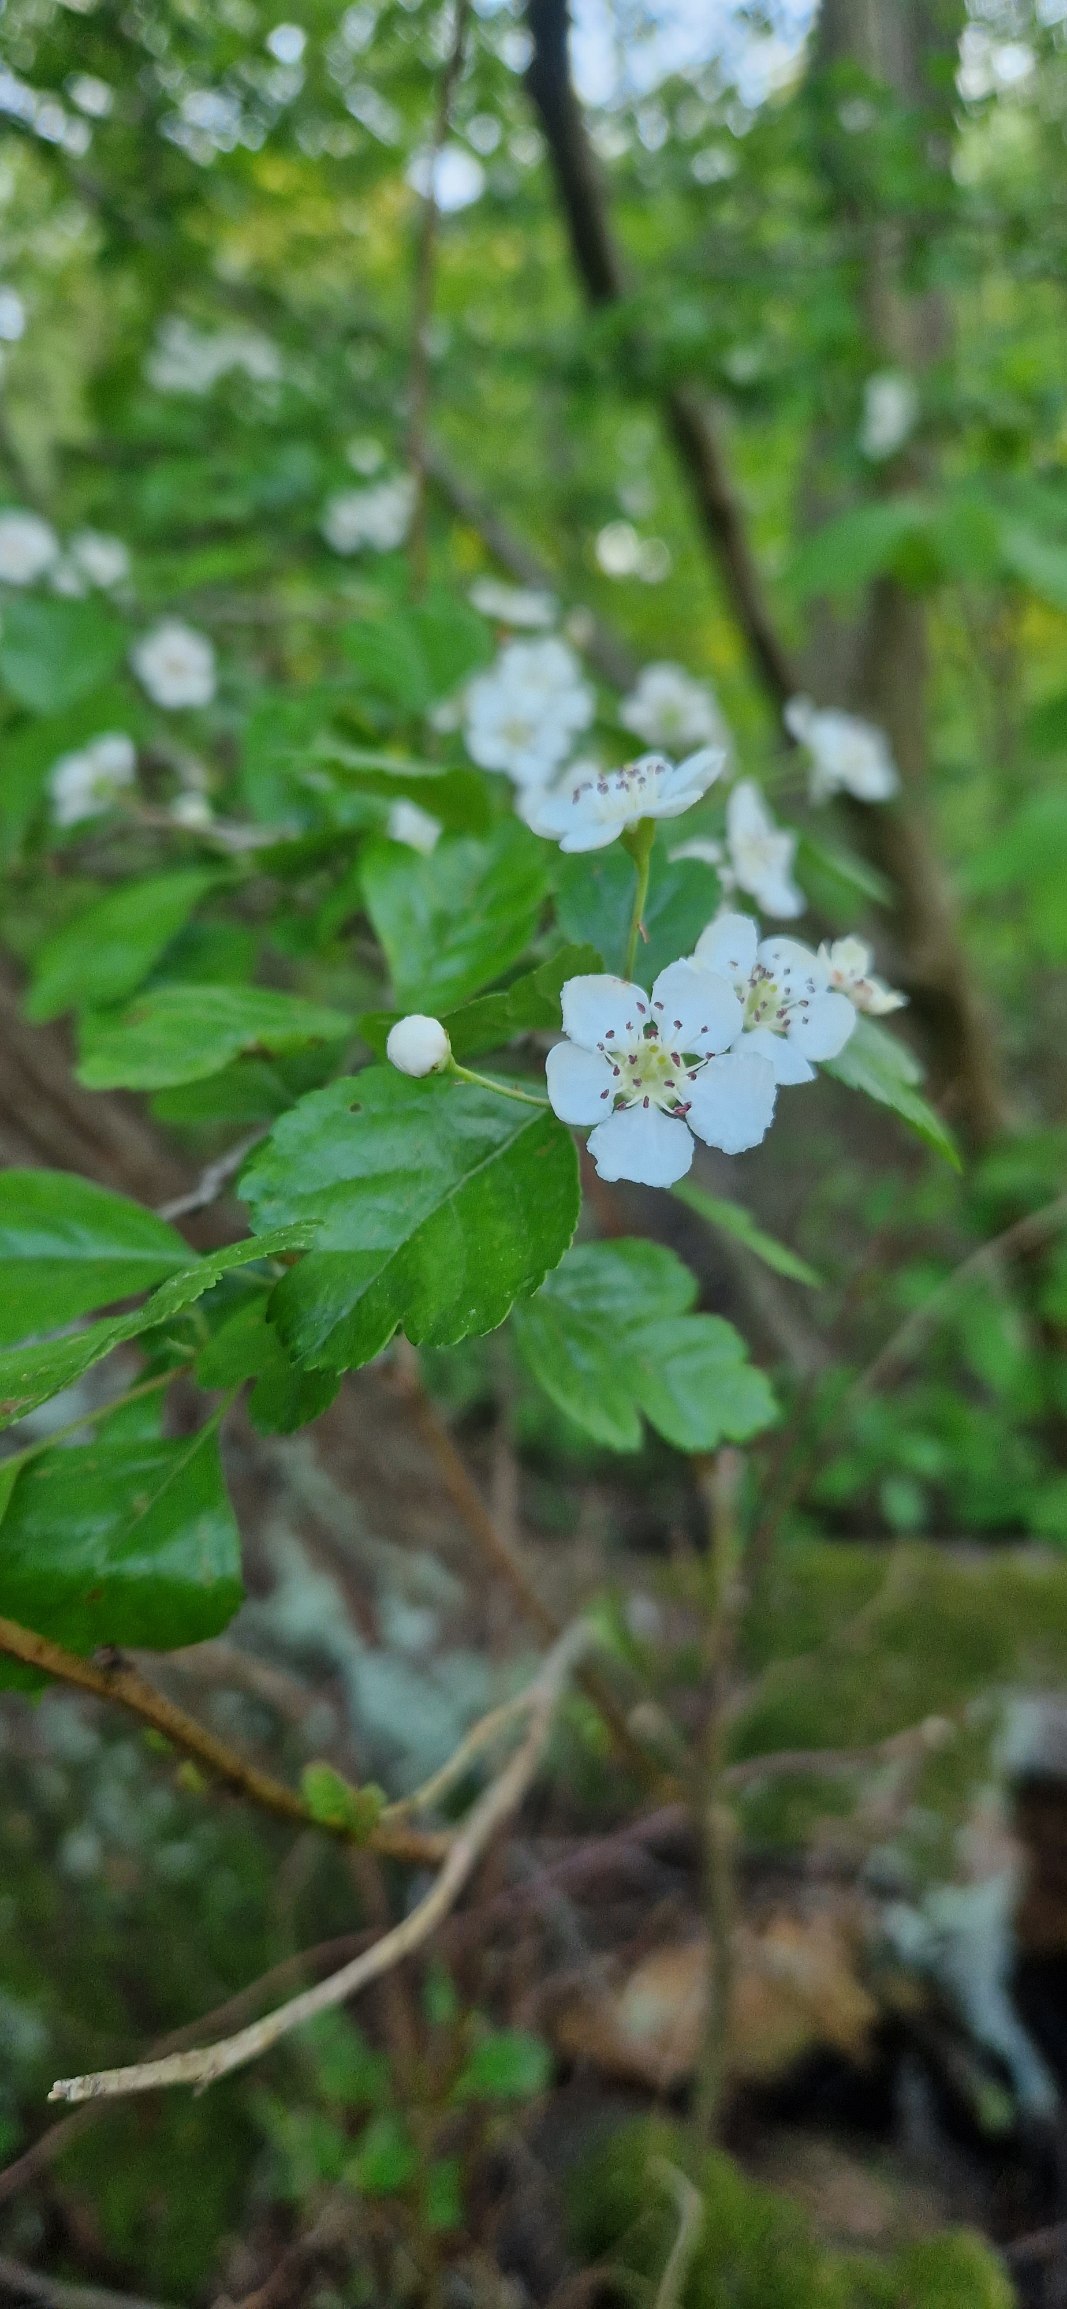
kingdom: Plantae
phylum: Tracheophyta
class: Magnoliopsida
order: Rosales
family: Rosaceae
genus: Crataegus
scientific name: Crataegus laevigata
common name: Almindelig hvidtjørn
